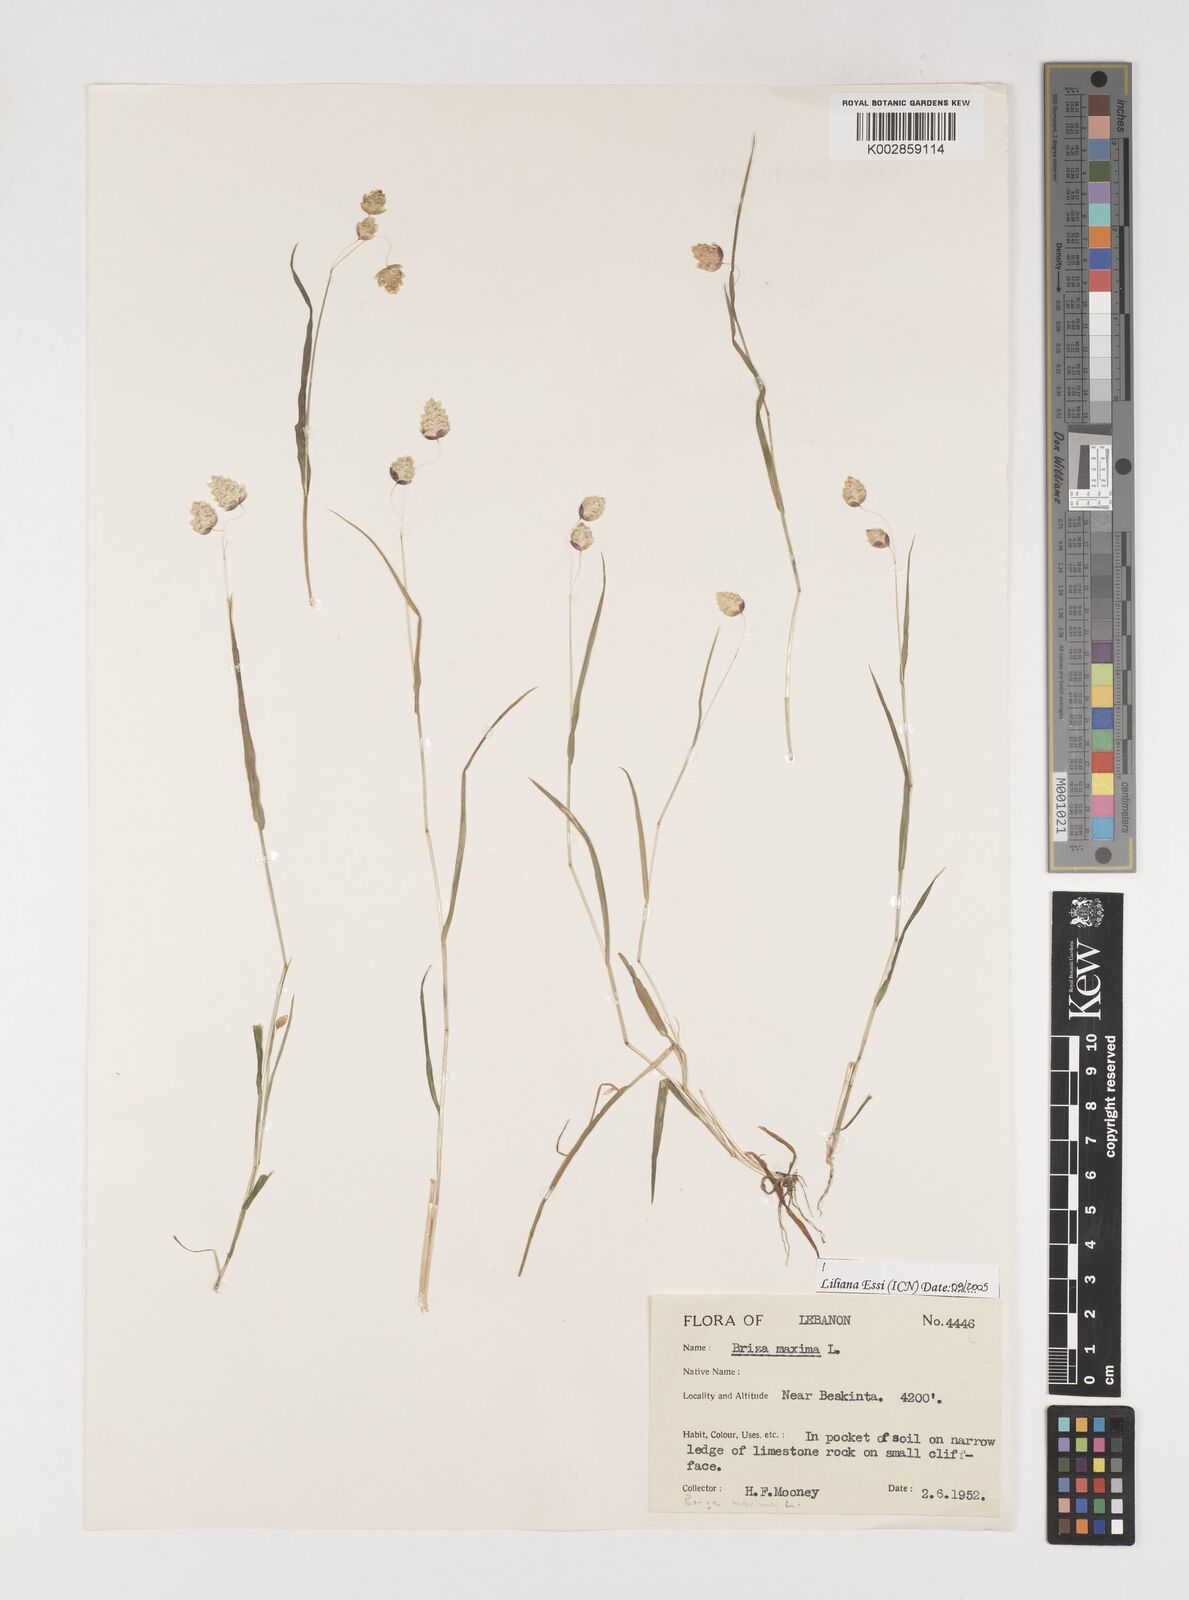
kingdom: Plantae
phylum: Tracheophyta
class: Liliopsida
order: Poales
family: Poaceae
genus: Briza
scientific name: Briza maxima
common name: Big quakinggrass
